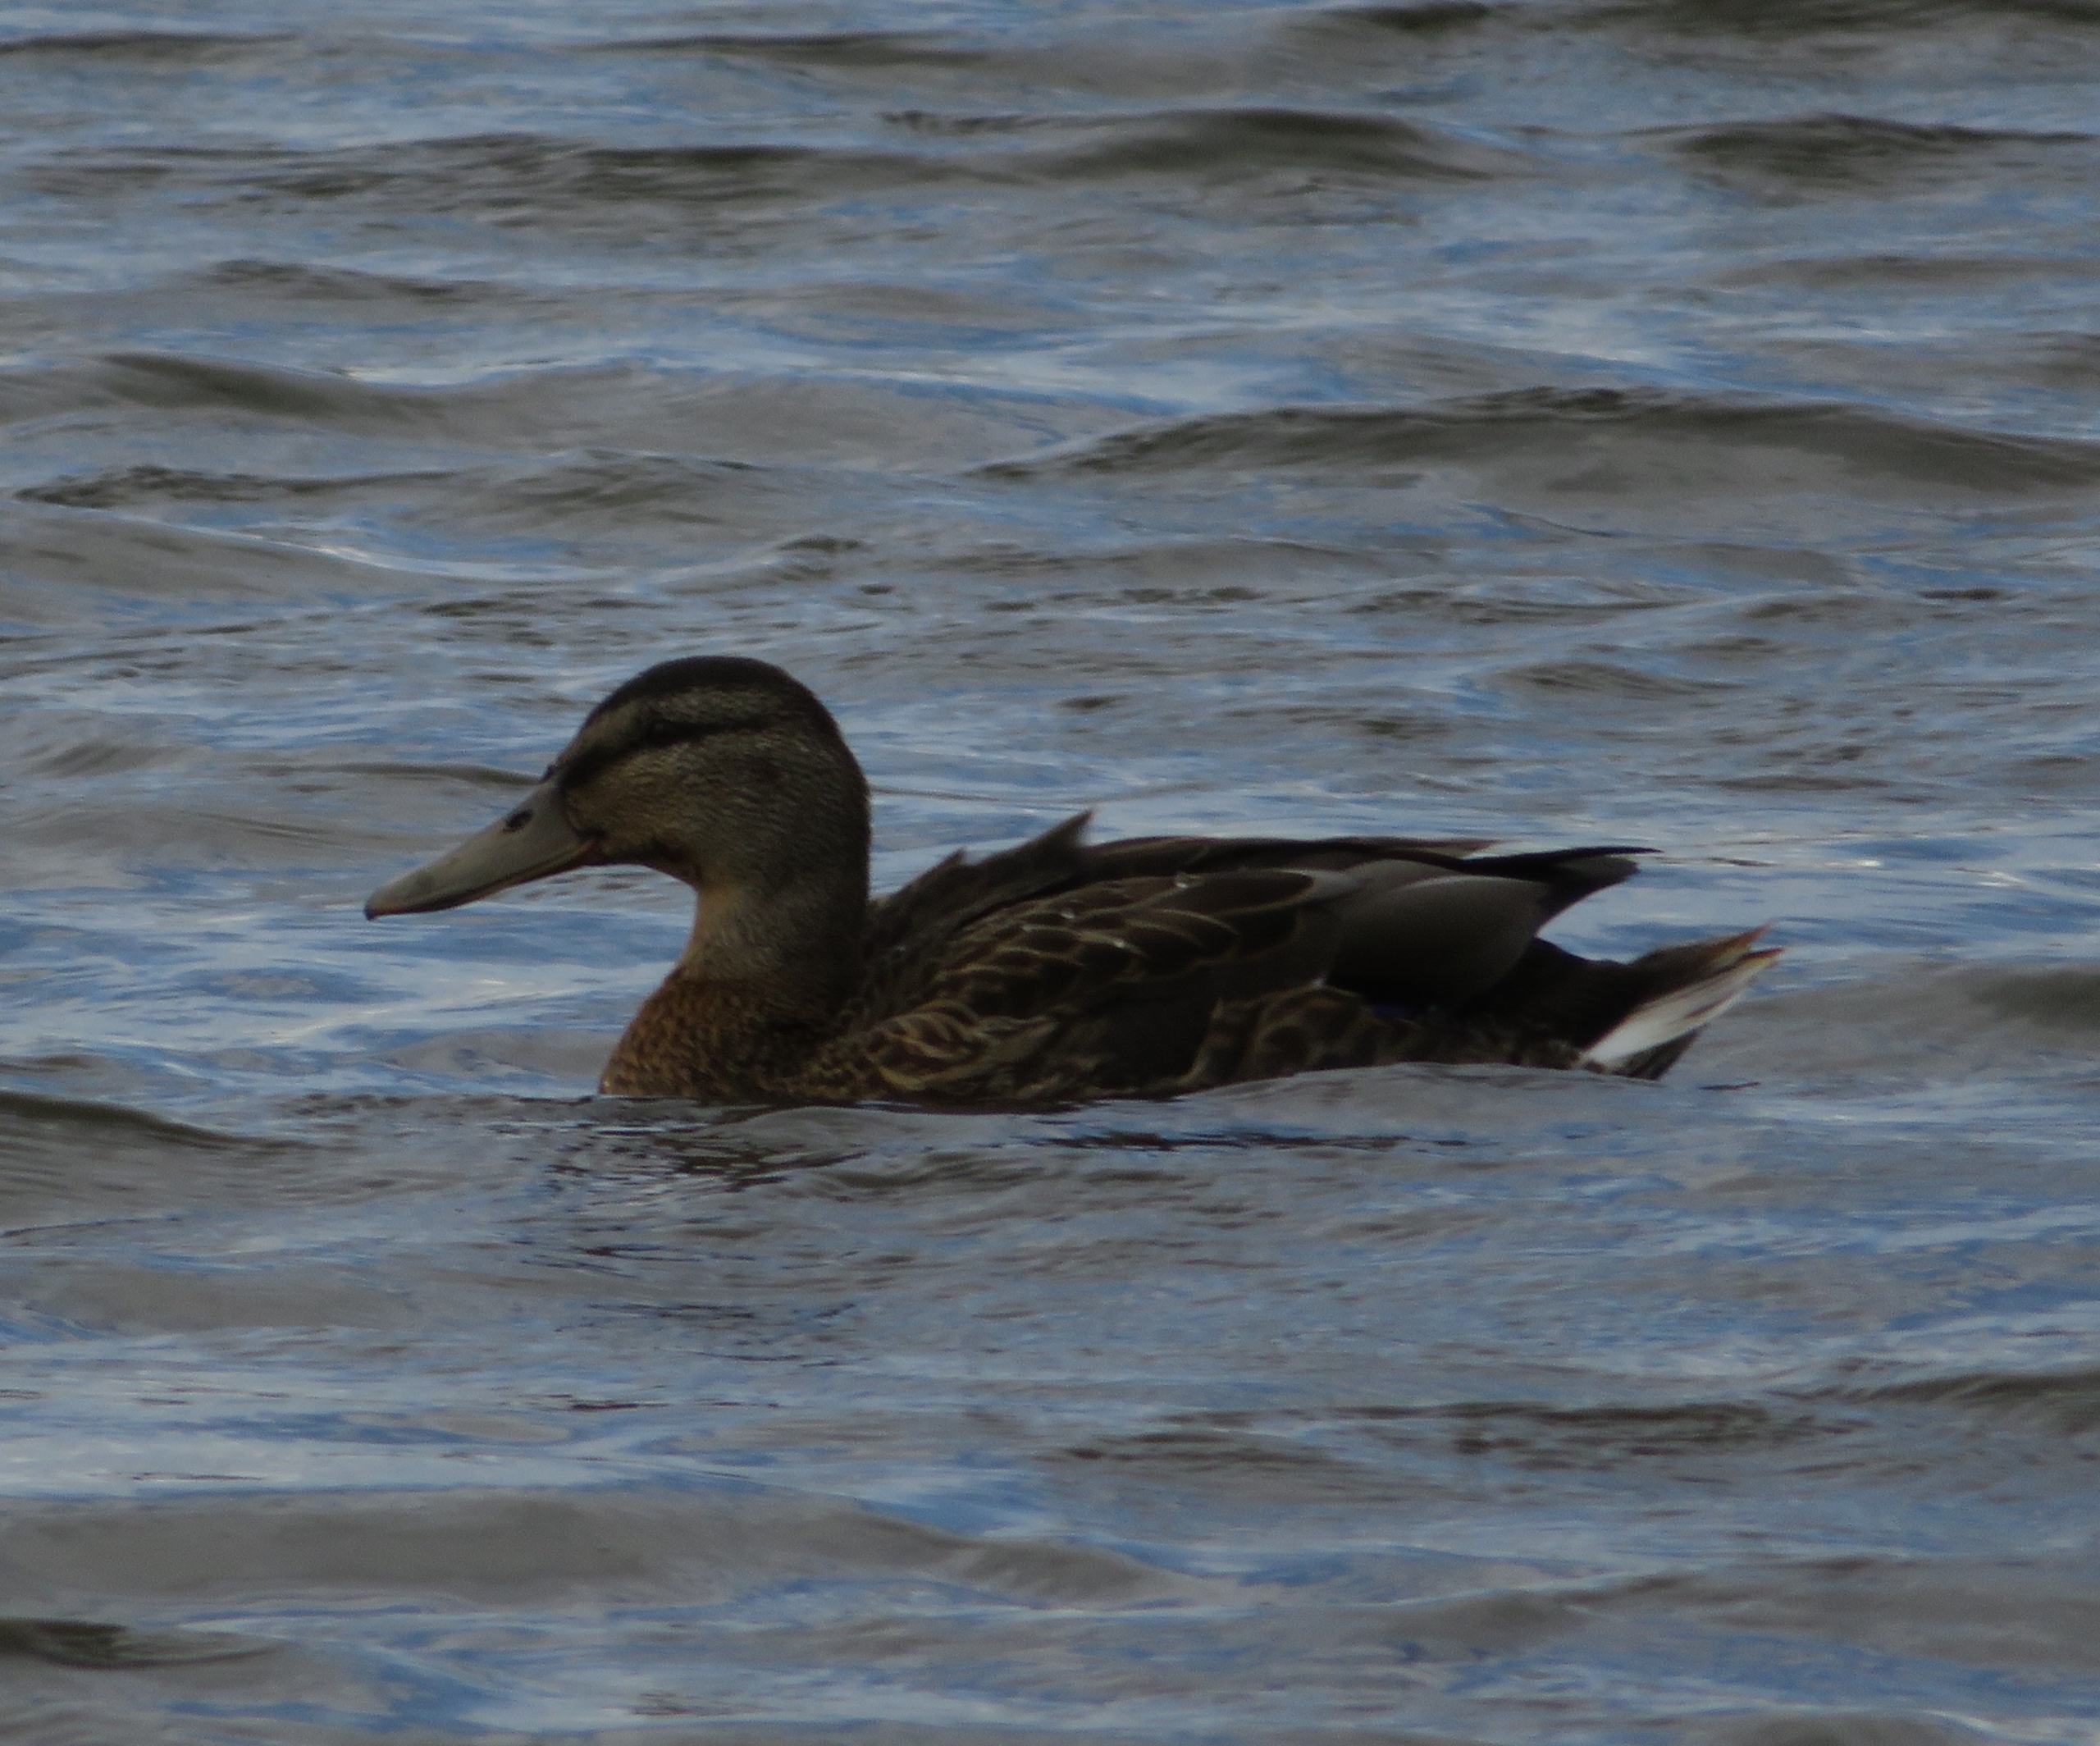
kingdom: Animalia
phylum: Chordata
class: Aves
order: Anseriformes
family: Anatidae
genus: Anas
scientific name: Anas platyrhynchos
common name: Gråand
